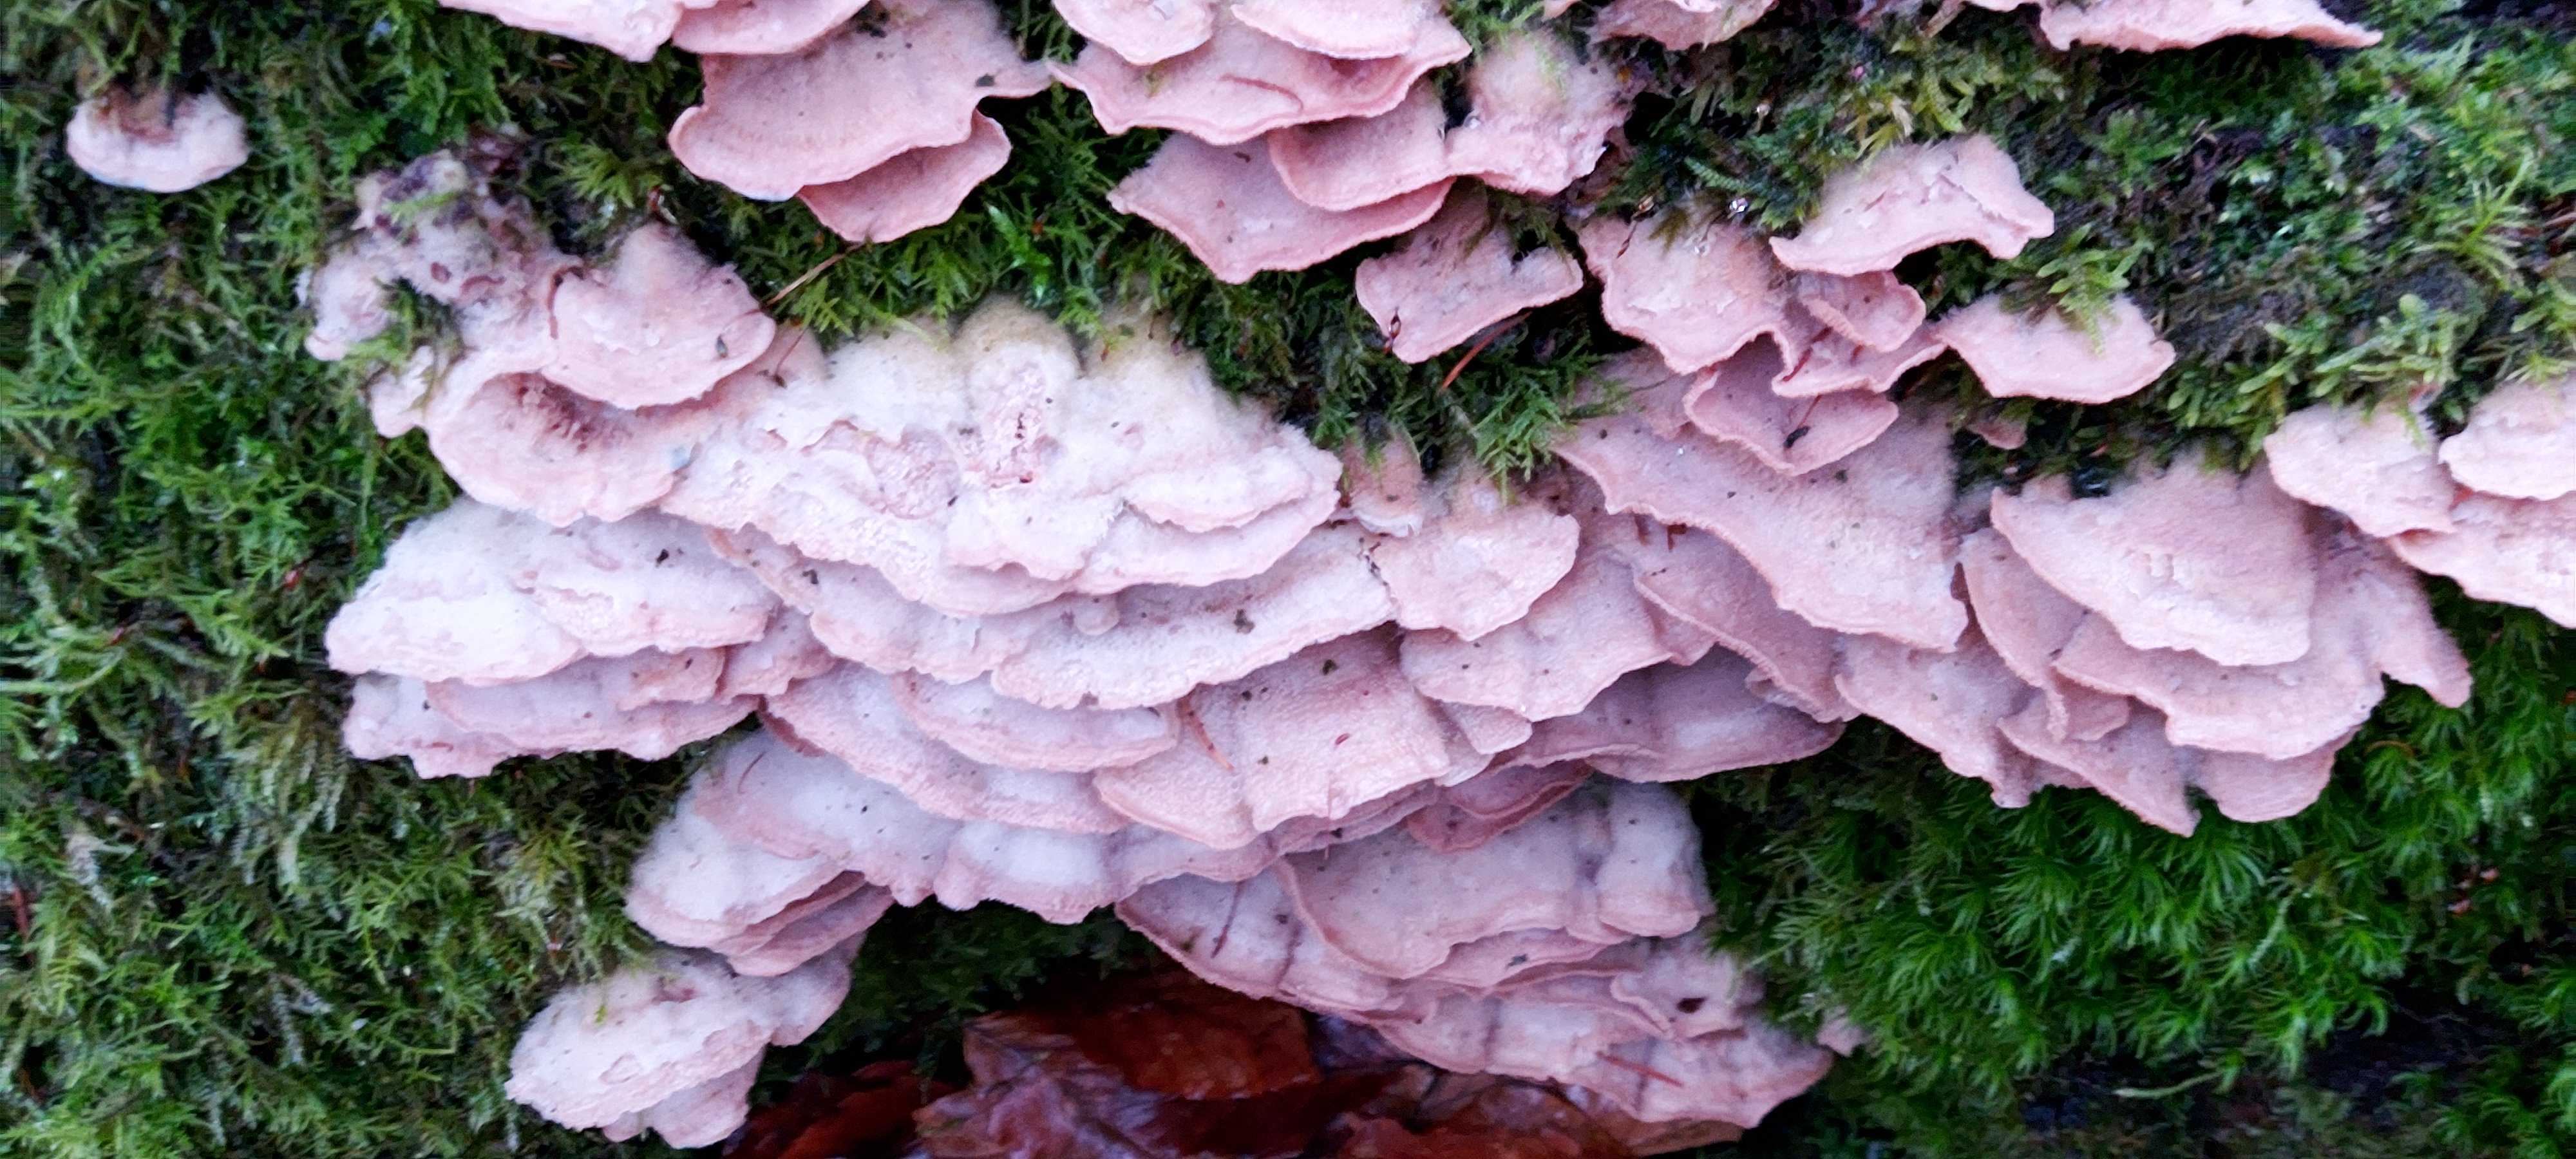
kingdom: Fungi
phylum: Basidiomycota
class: Agaricomycetes
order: Polyporales
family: Meruliaceae
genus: Phlebia
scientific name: Phlebia tremellosa
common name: bævrende åresvamp
